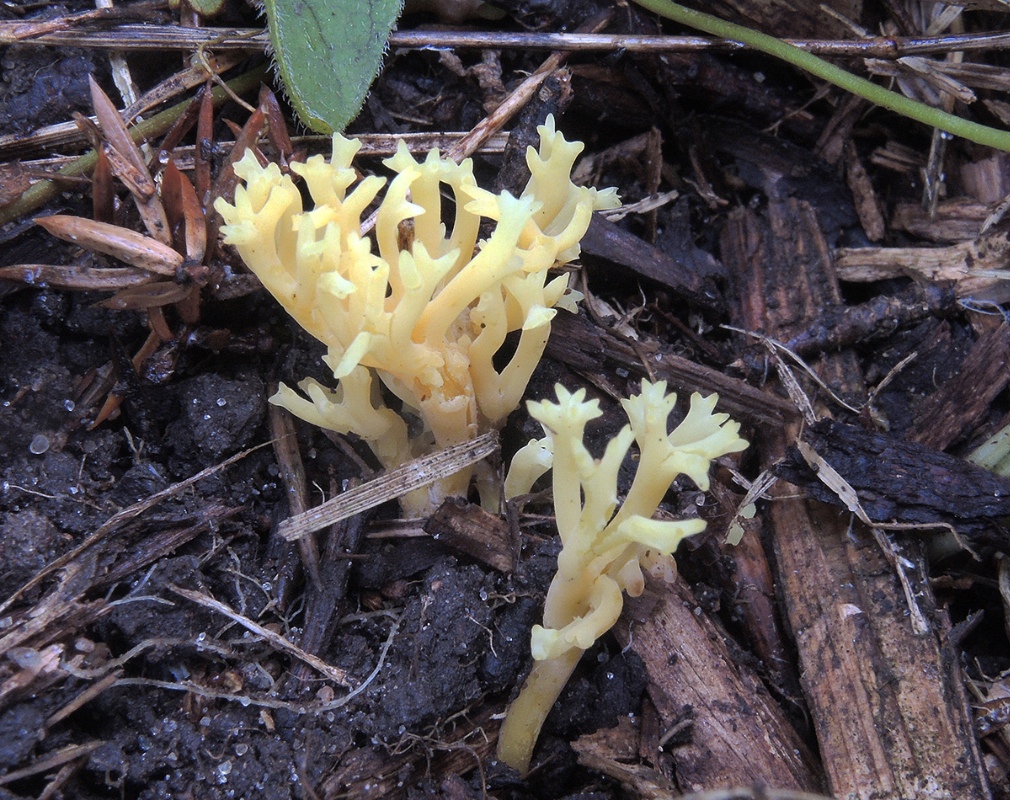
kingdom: Fungi
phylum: Basidiomycota
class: Agaricomycetes
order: Agaricales
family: Clavariaceae
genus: Clavulinopsis
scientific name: Clavulinopsis corniculata
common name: eng-køllesvamp
